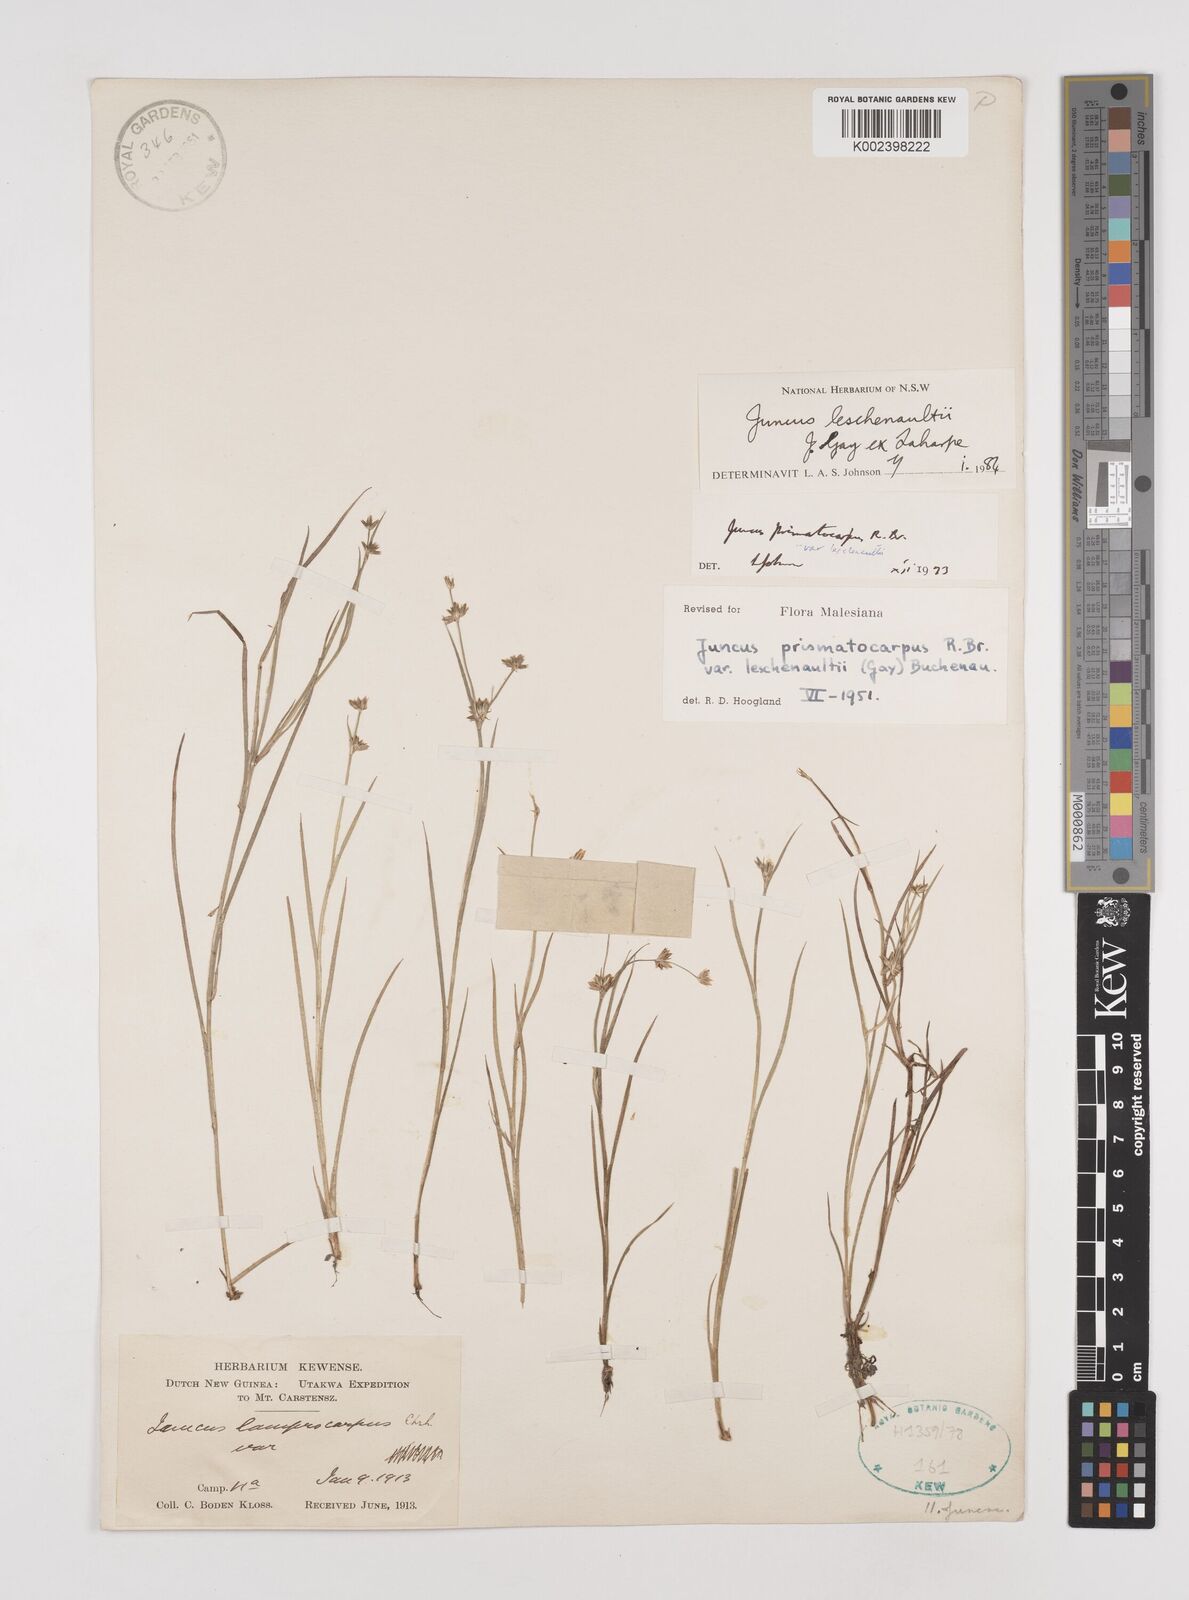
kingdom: Plantae
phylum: Tracheophyta
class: Liliopsida
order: Poales
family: Juncaceae
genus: Juncus
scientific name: Juncus prismatocarpus
